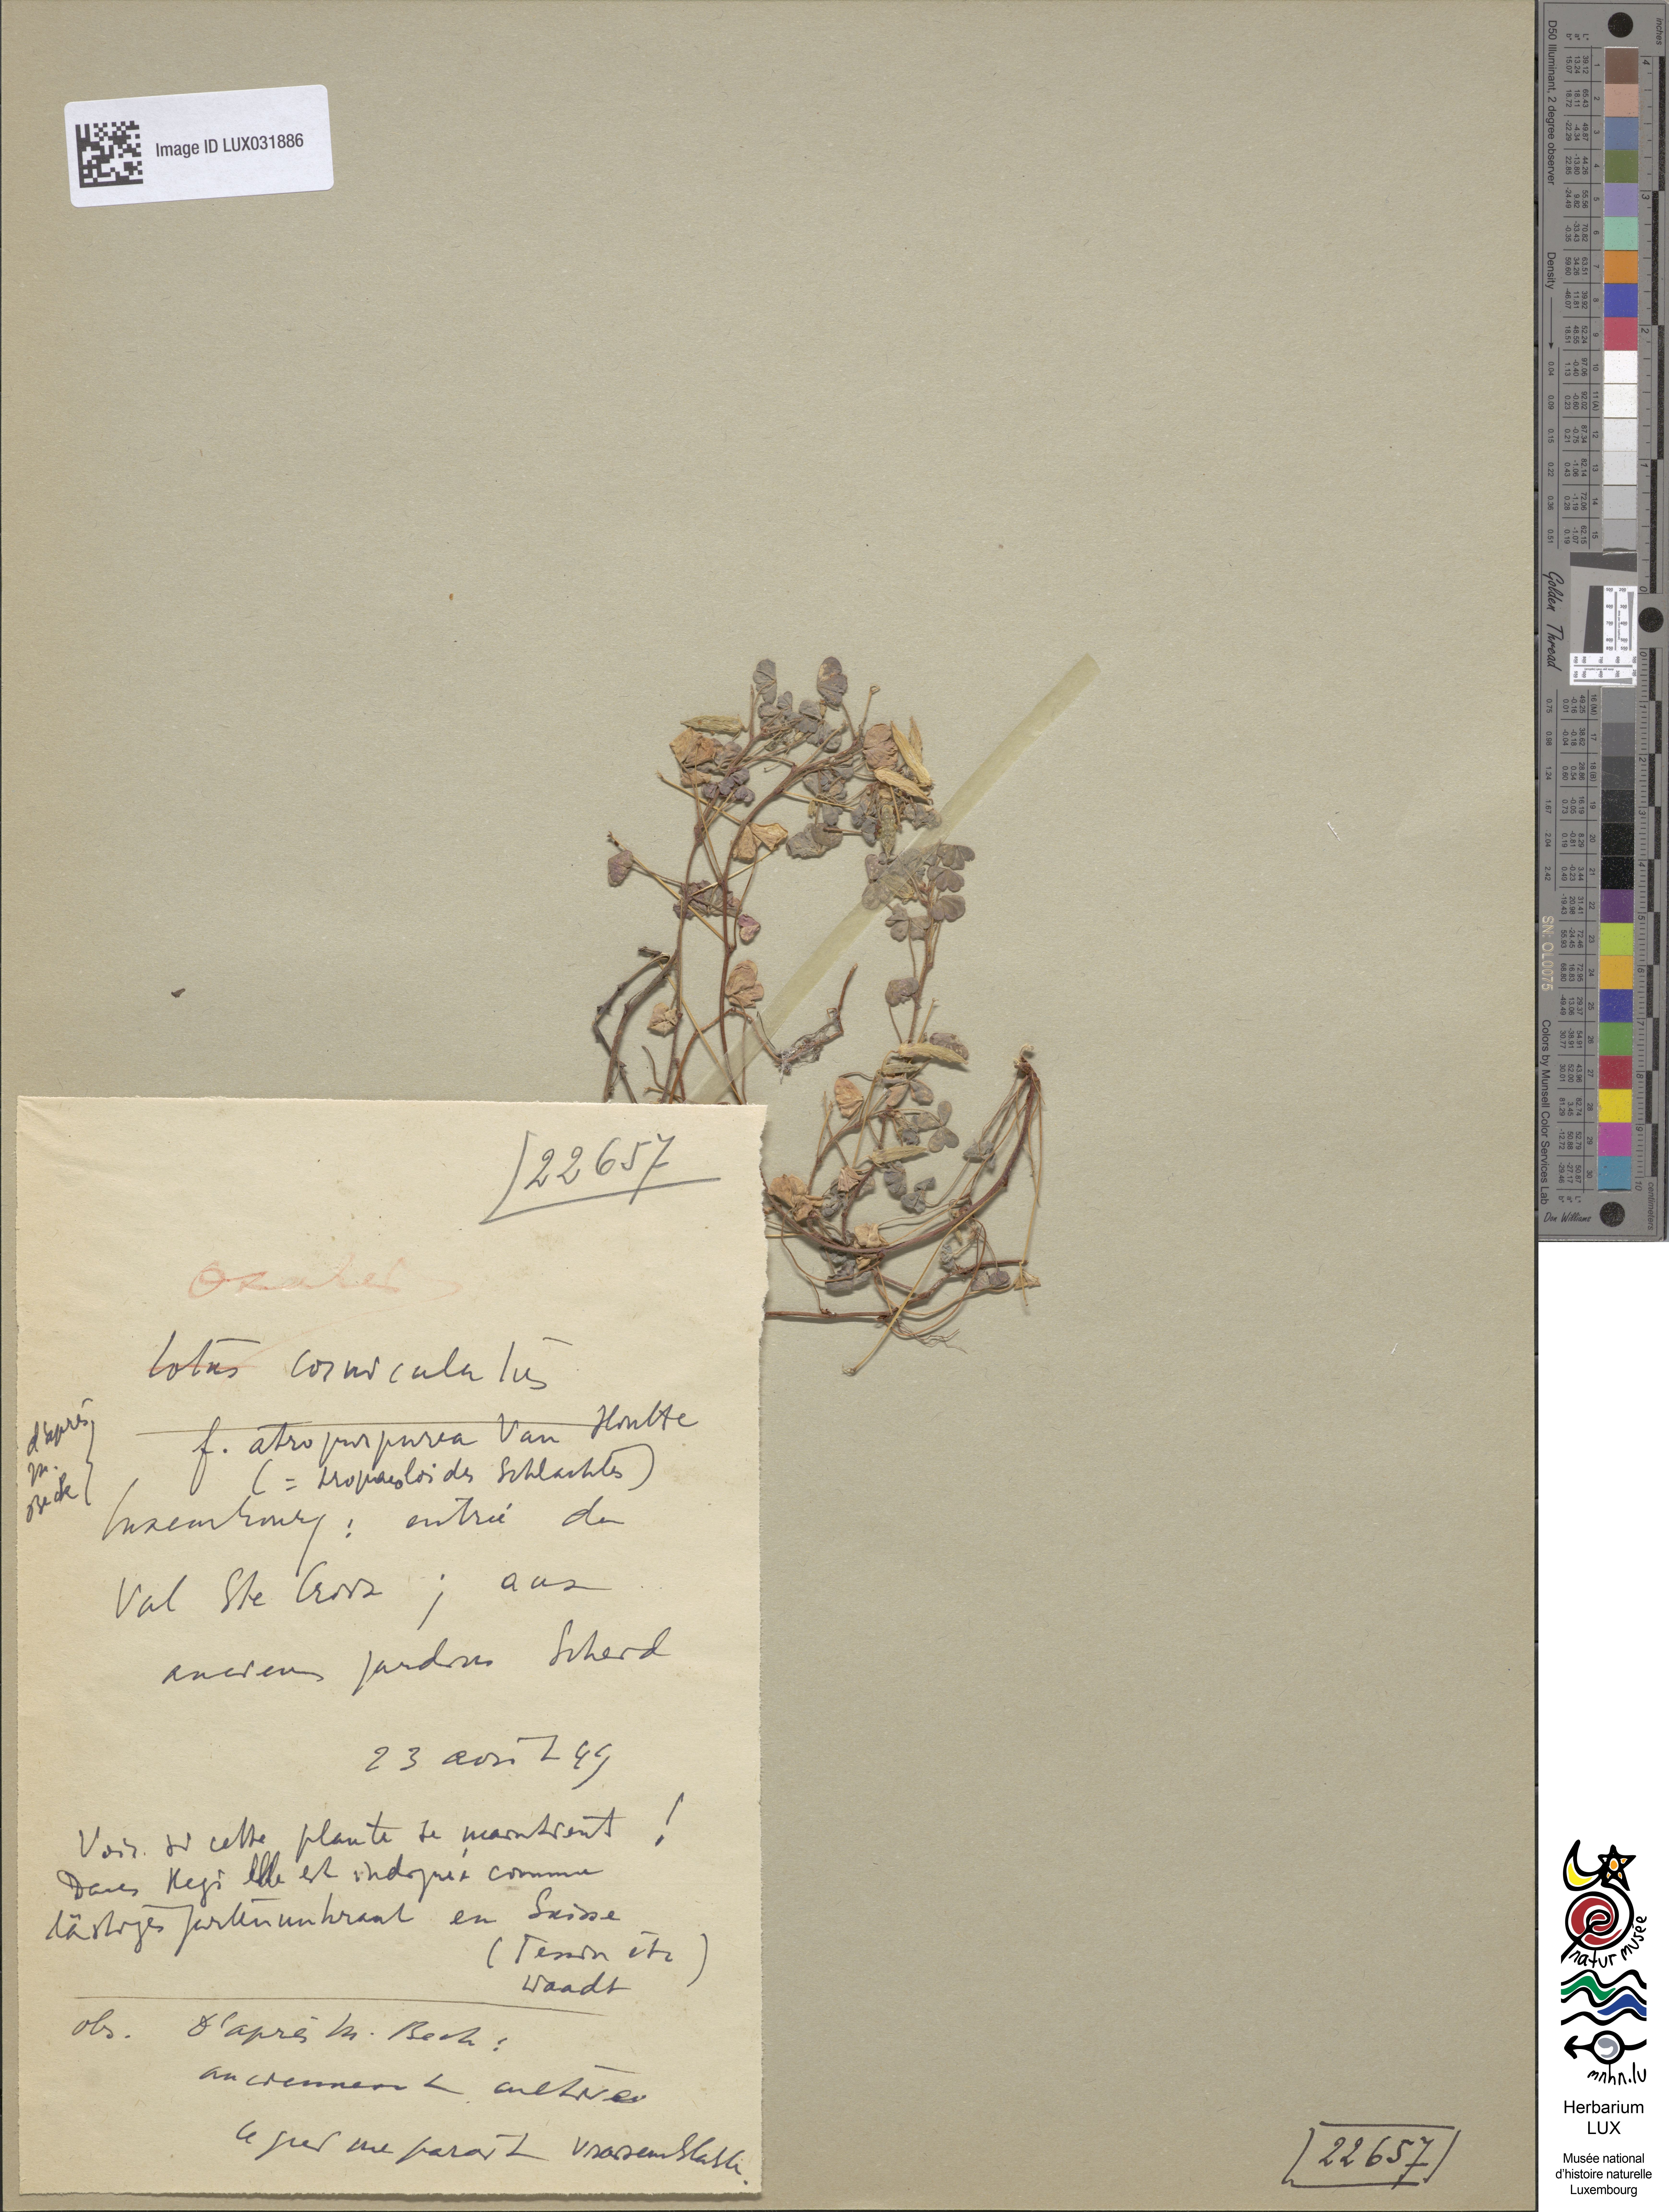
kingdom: Plantae
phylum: Tracheophyta
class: Magnoliopsida
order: Oxalidales
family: Oxalidaceae
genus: Oxalis
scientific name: Oxalis corniculata
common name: Procumbent yellow-sorrel
